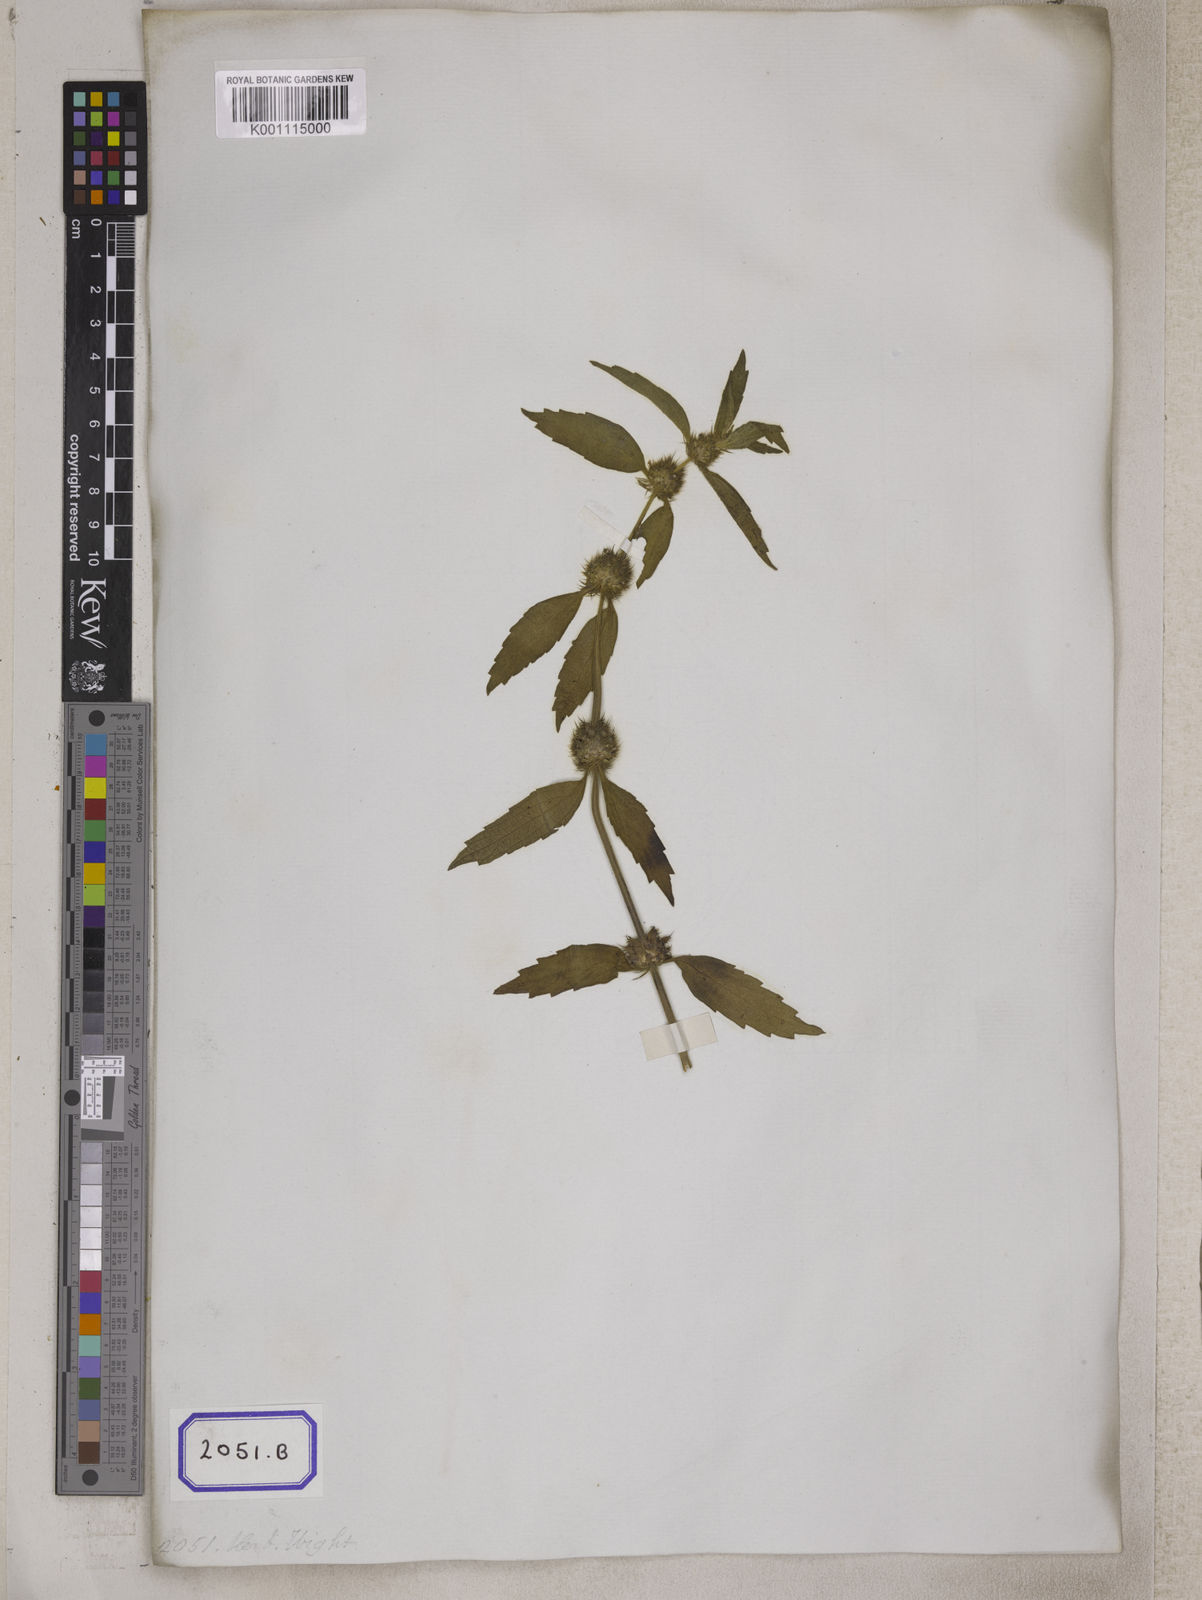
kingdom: Plantae
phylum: Tracheophyta
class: Magnoliopsida
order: Lamiales
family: Lamiaceae
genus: Leucas
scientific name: Leucas
